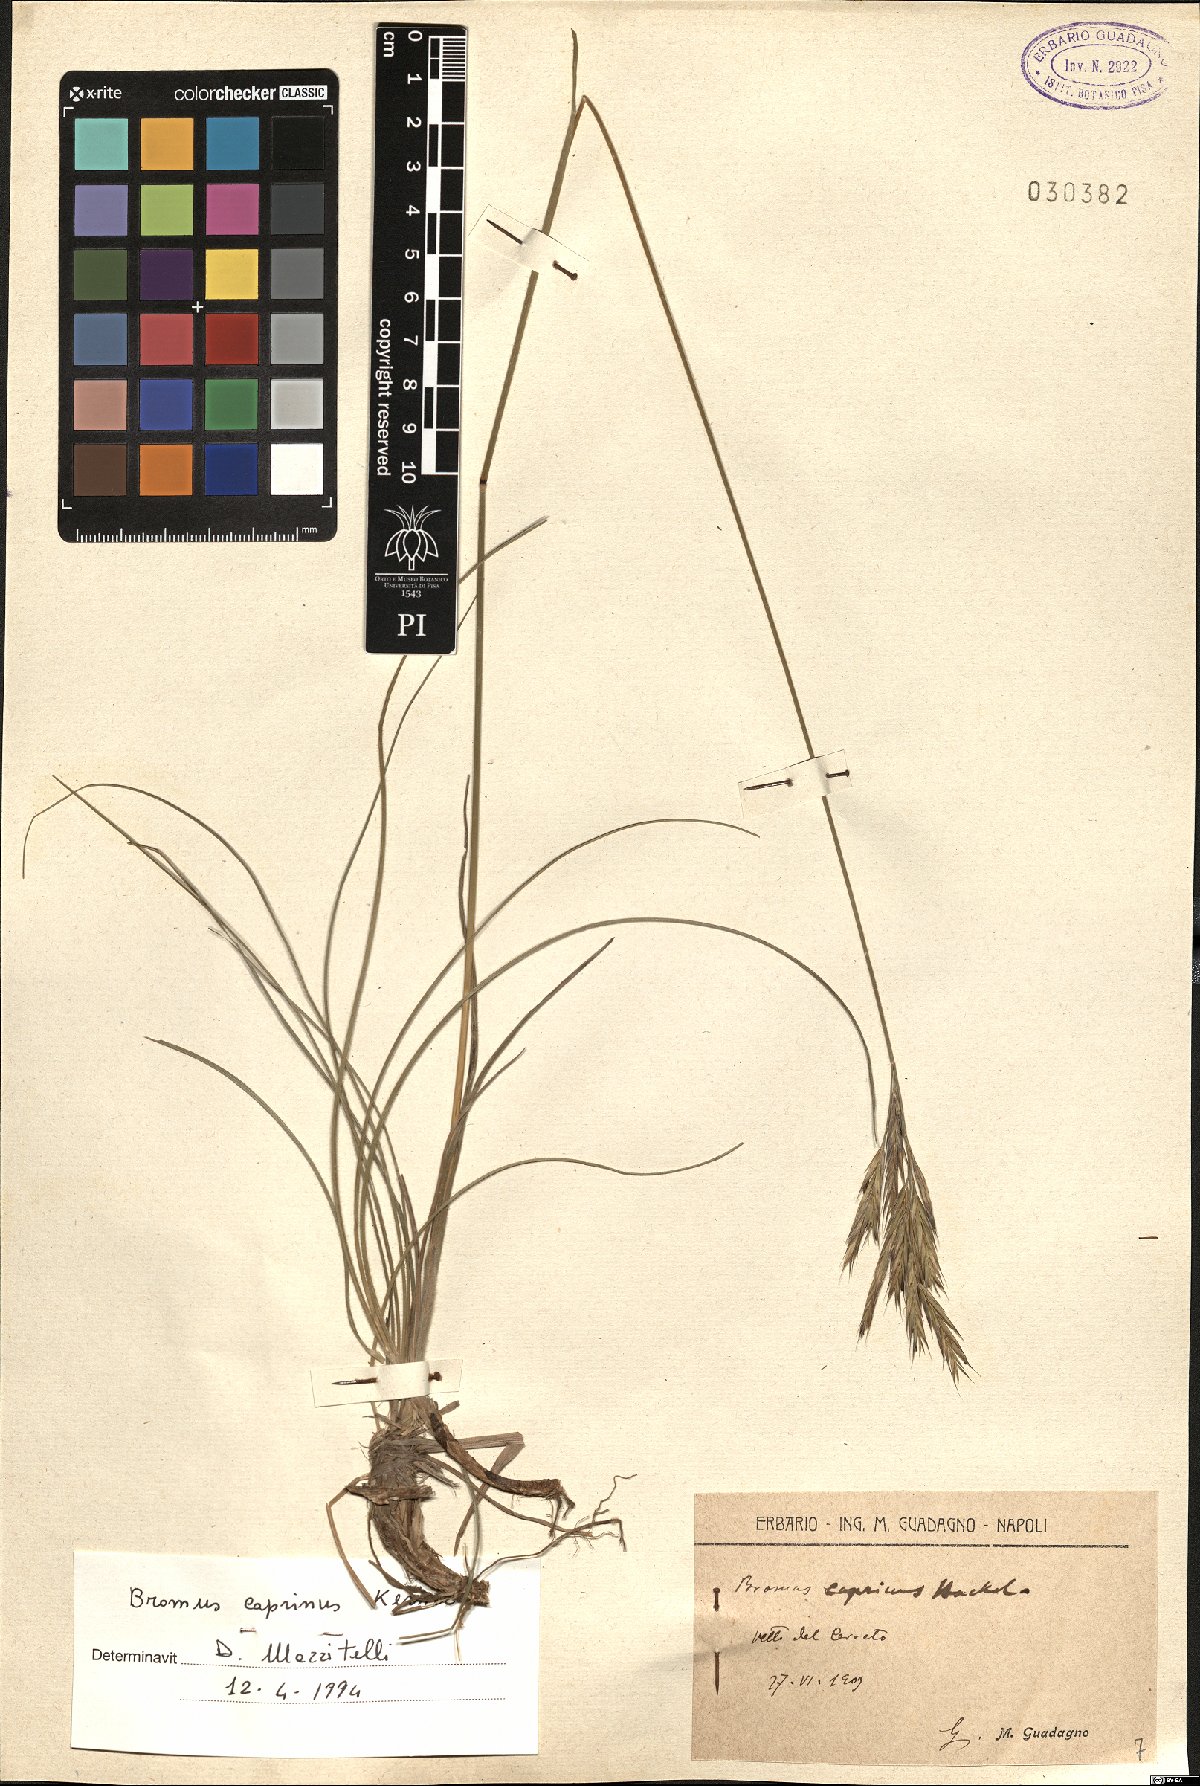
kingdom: Plantae
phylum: Tracheophyta
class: Liliopsida
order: Poales
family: Poaceae
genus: Bromus
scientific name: Bromus erectus
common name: Erect brome
